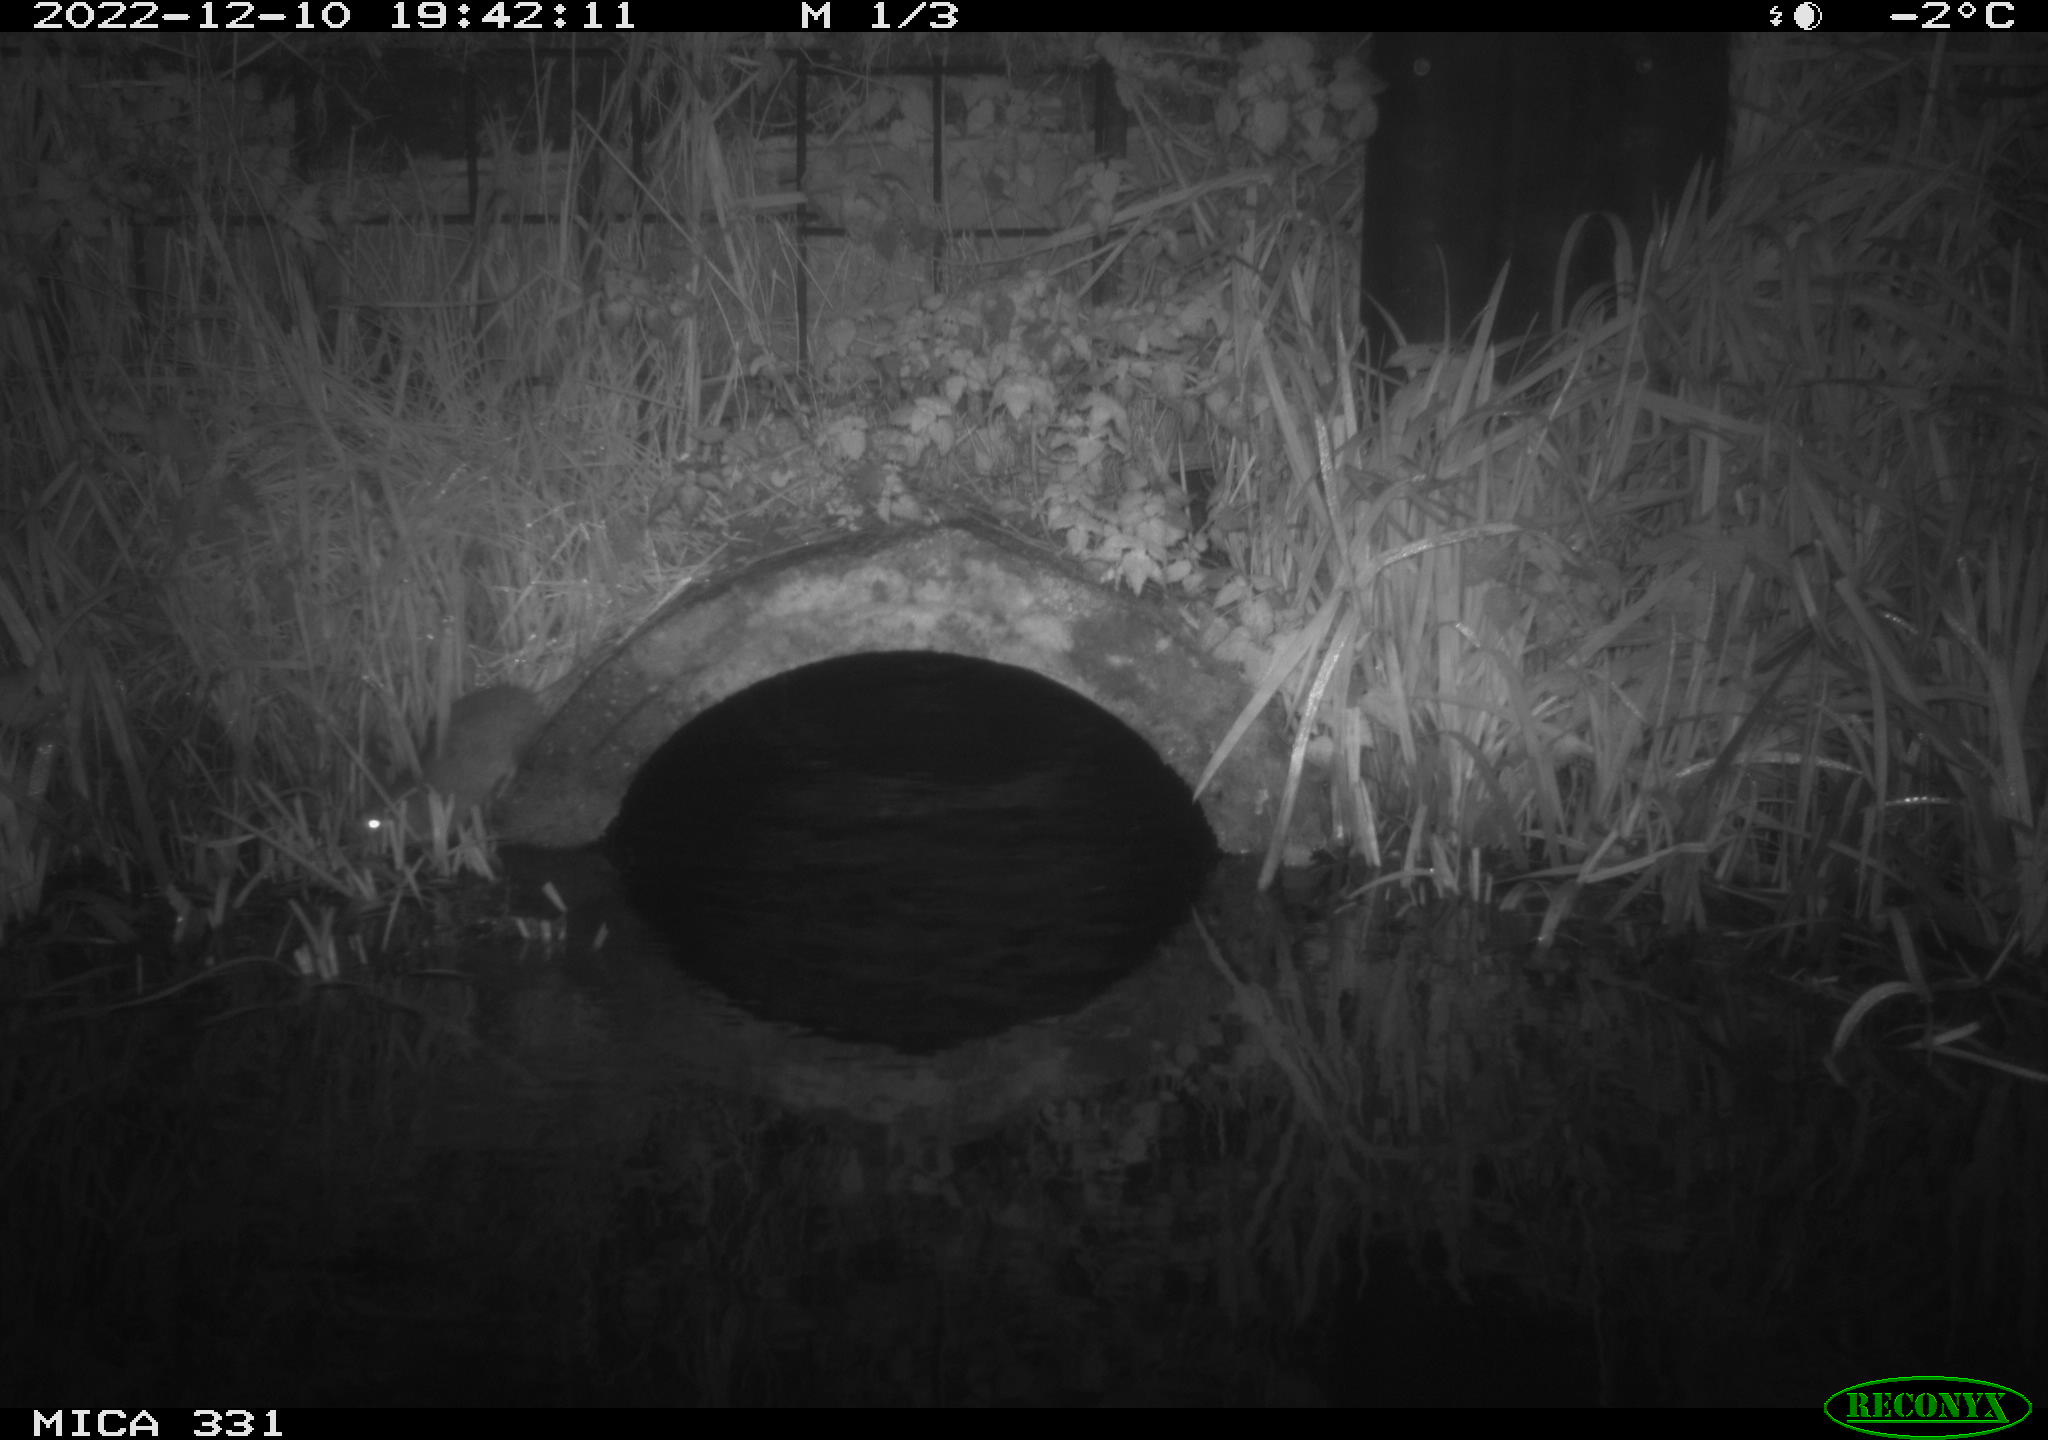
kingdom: Animalia
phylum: Chordata
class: Mammalia
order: Rodentia
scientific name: Rodentia
